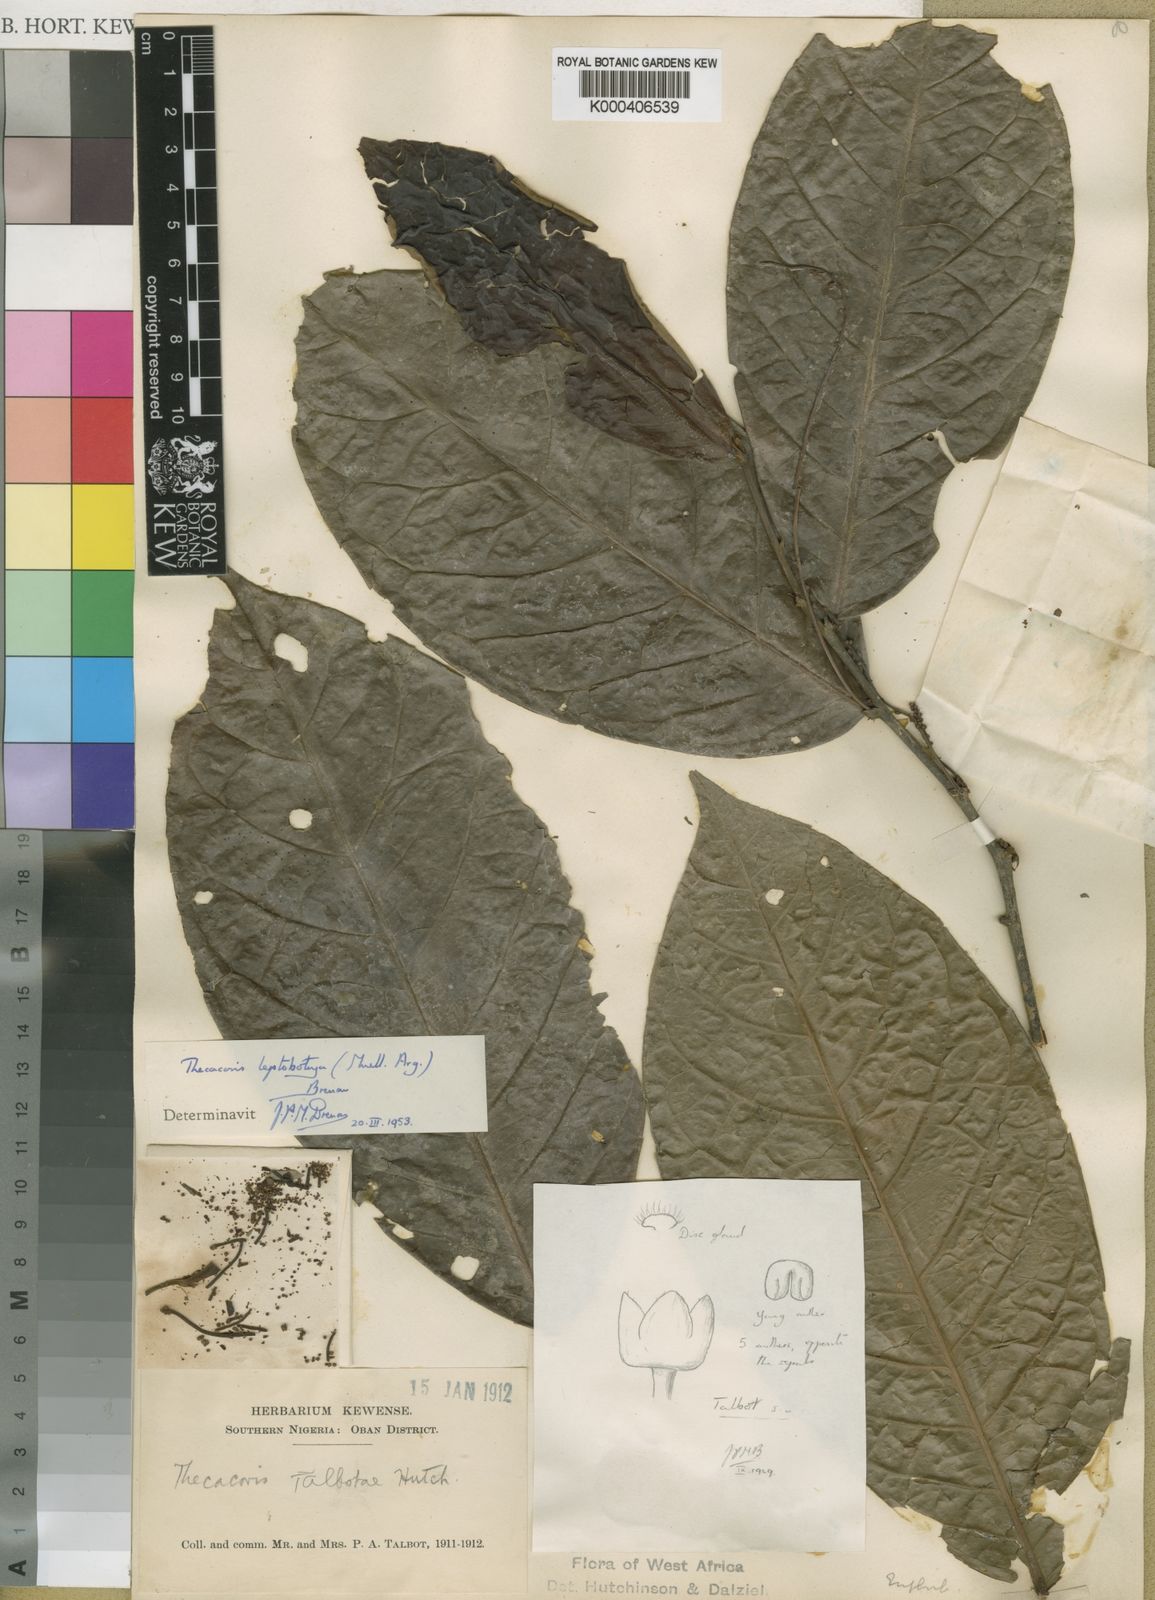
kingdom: Plantae
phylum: Tracheophyta
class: Magnoliopsida
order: Malpighiales
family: Phyllanthaceae
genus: Thecacoris
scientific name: Thecacoris
